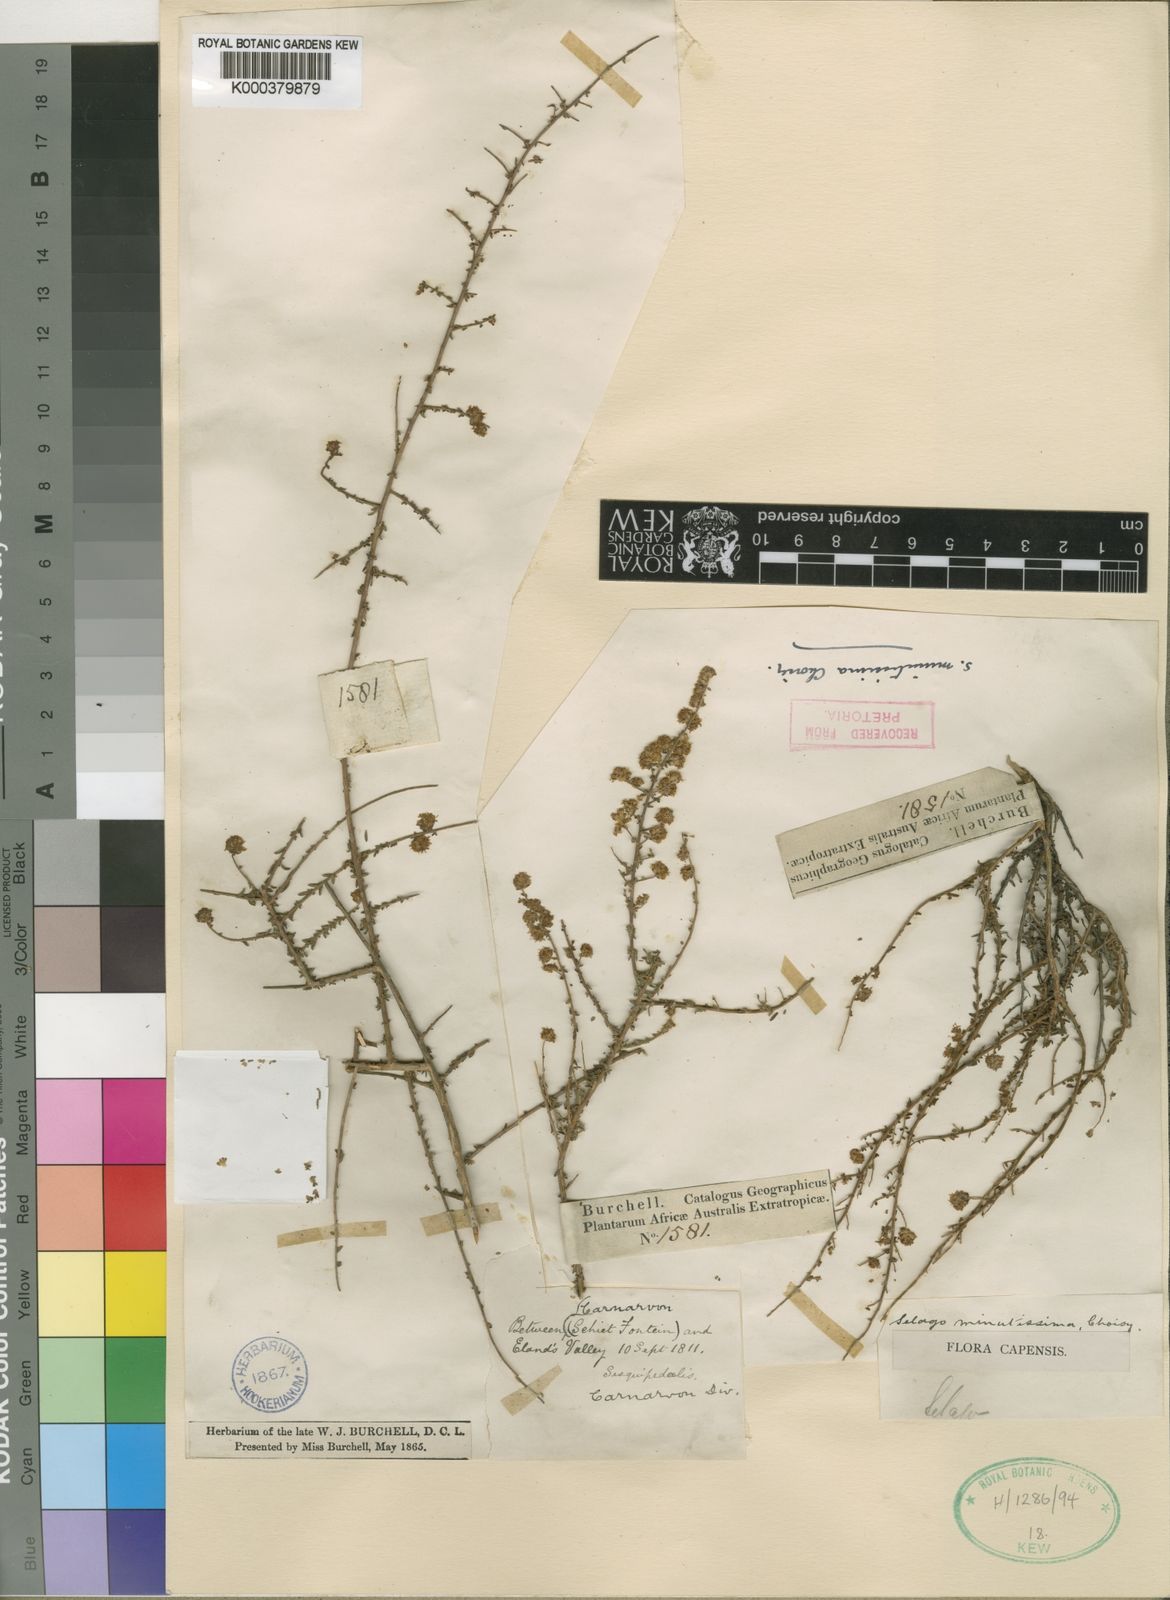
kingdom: Plantae
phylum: Tracheophyta
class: Magnoliopsida
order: Lamiales
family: Scrophulariaceae
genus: Selago
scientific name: Selago divaricata
